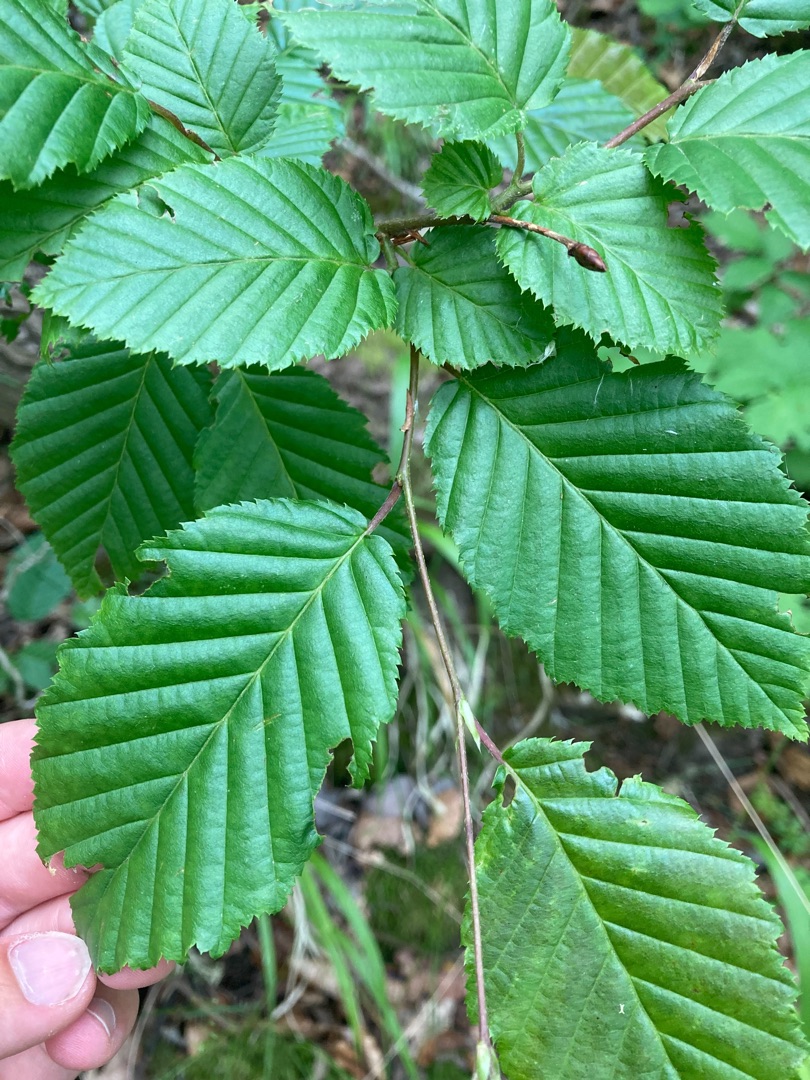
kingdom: Plantae
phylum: Tracheophyta
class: Magnoliopsida
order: Fagales
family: Betulaceae
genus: Carpinus
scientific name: Carpinus betulus
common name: Avnbøg
